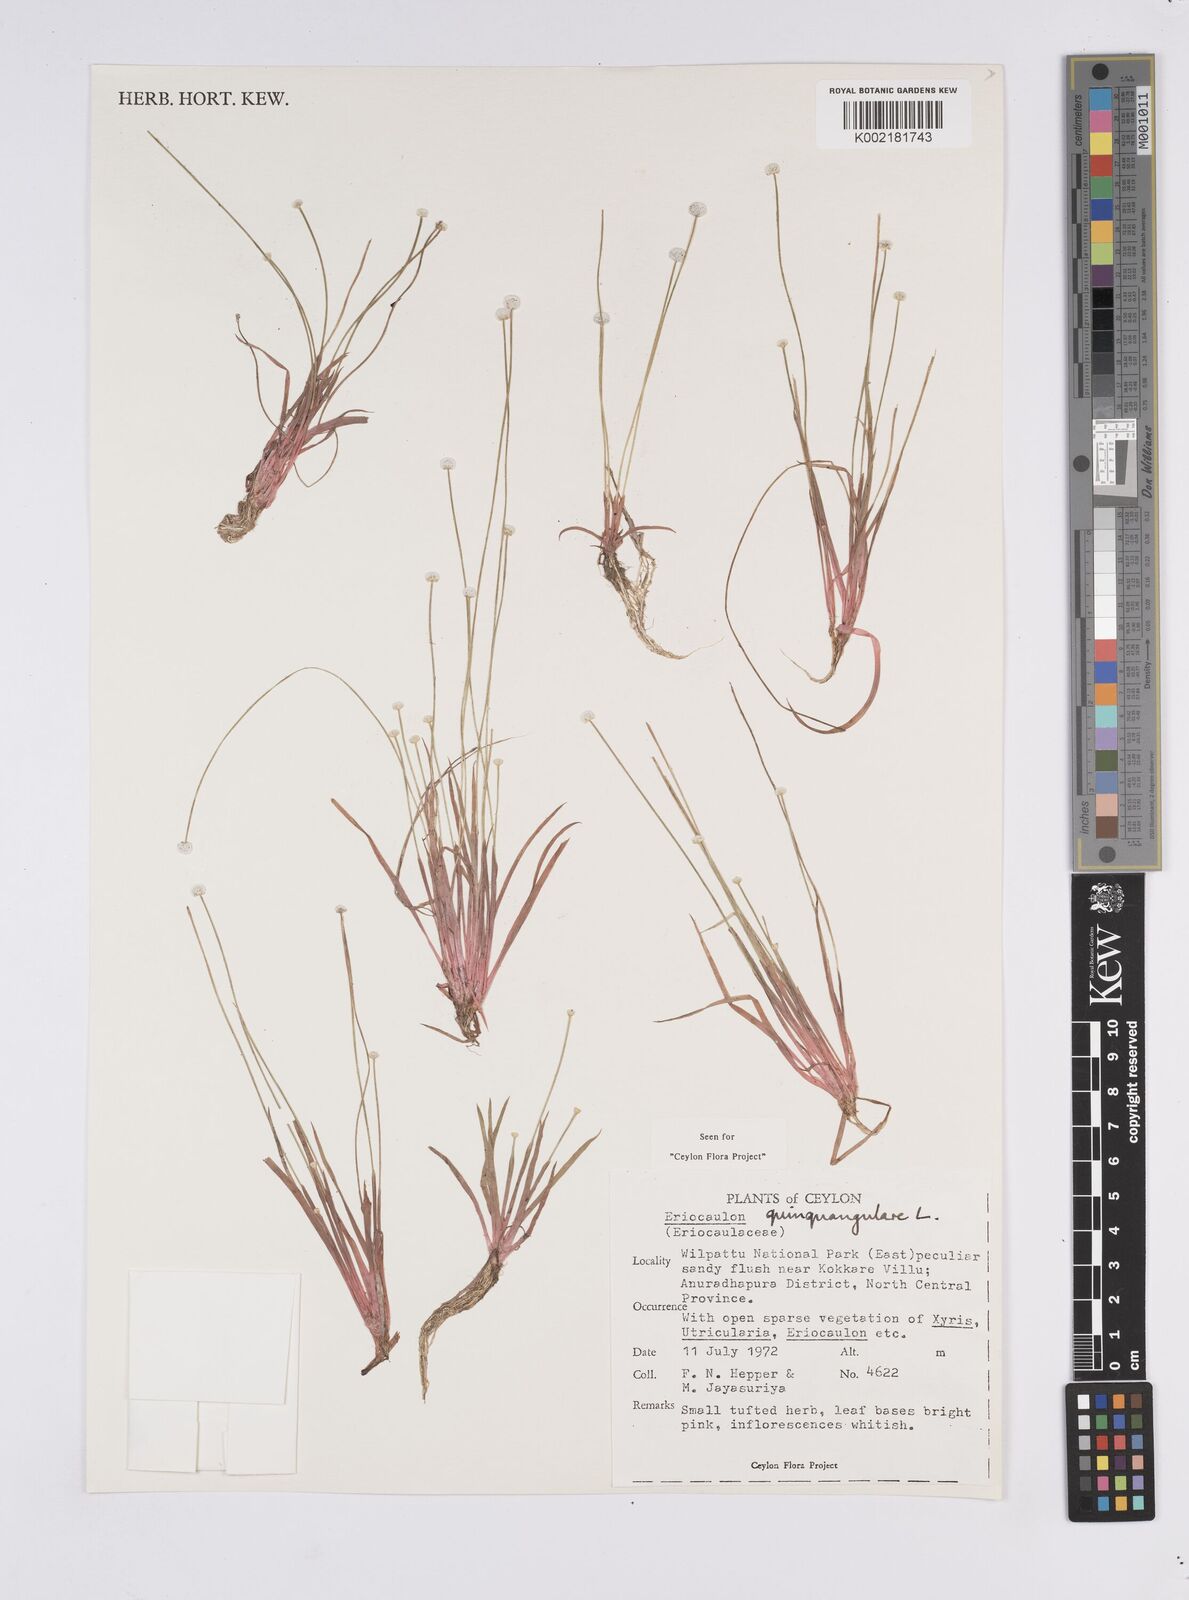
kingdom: Plantae
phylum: Tracheophyta
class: Liliopsida
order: Poales
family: Eriocaulaceae
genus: Eriocaulon
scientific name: Eriocaulon quinquangulare
